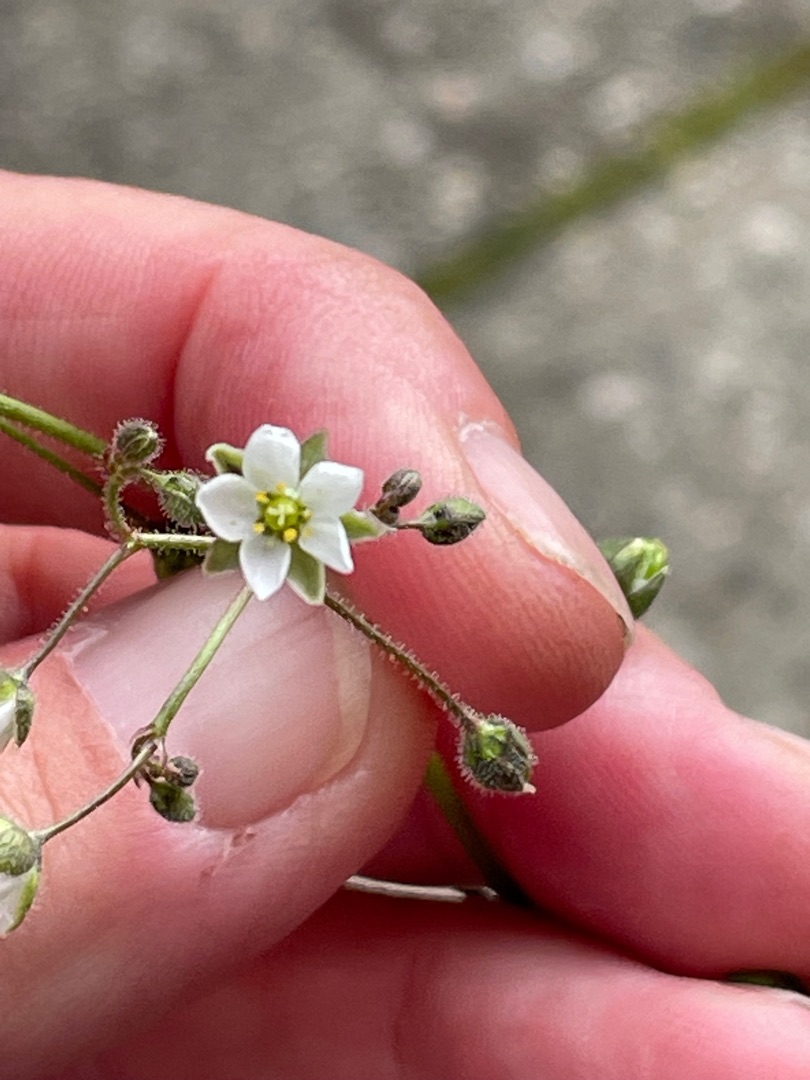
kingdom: Plantae
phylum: Tracheophyta
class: Magnoliopsida
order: Caryophyllales
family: Caryophyllaceae
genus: Spergula
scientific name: Spergula arvensis
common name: Almindelig spergel
